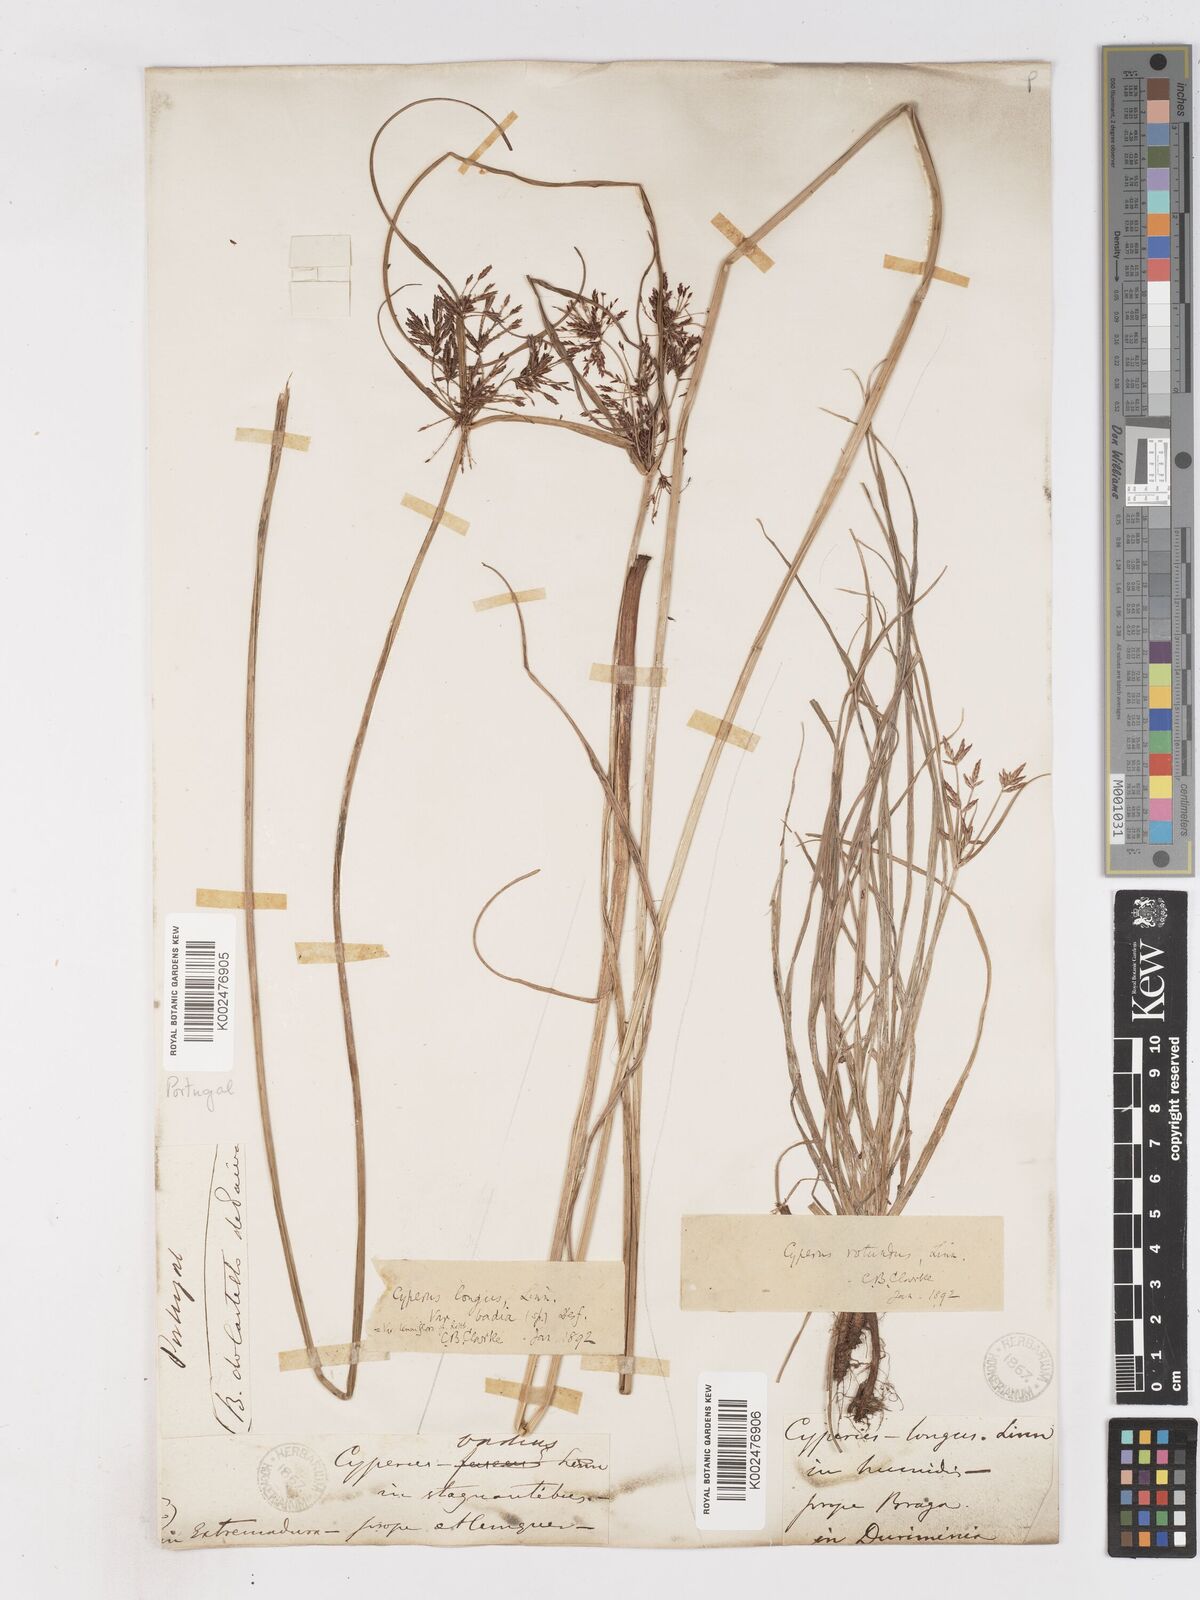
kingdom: Plantae
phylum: Tracheophyta
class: Liliopsida
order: Poales
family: Cyperaceae
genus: Cyperus
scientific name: Cyperus longus
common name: Galingale
